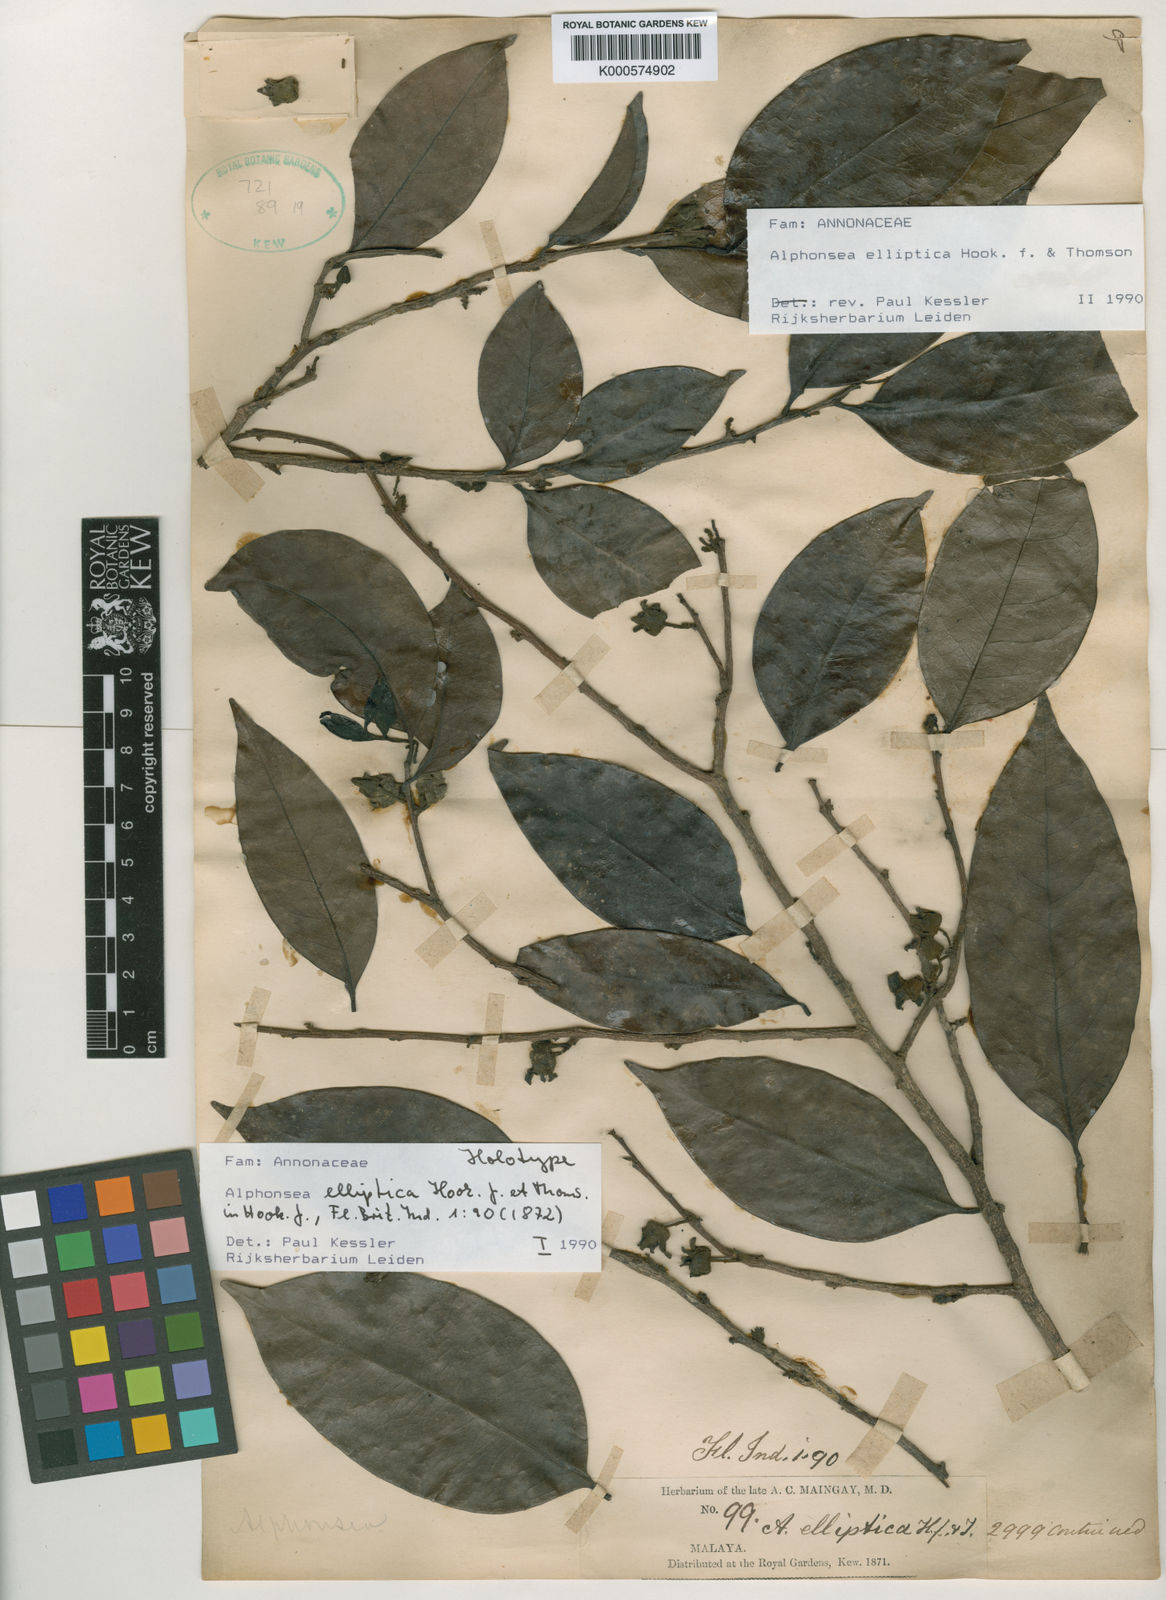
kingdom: Plantae
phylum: Tracheophyta
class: Magnoliopsida
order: Magnoliales
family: Annonaceae
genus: Alphonsea
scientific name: Alphonsea elliptica
